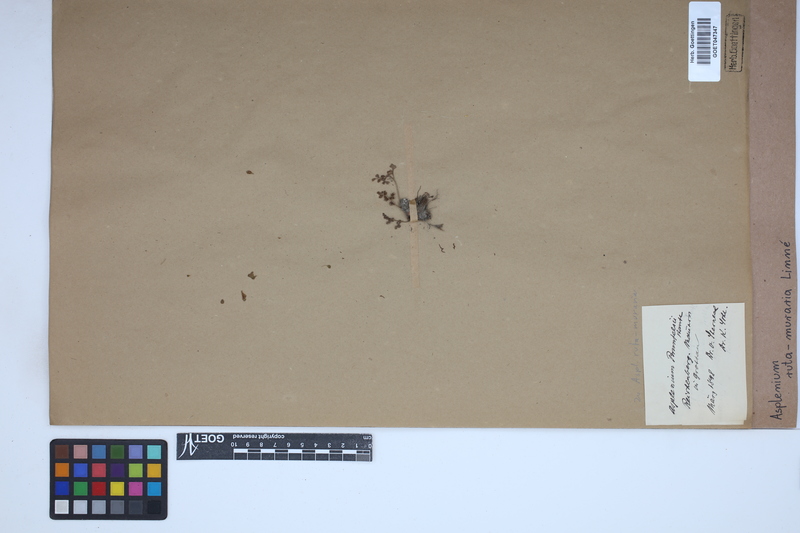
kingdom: Plantae
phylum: Tracheophyta
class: Polypodiopsida
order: Polypodiales
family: Aspleniaceae
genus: Asplenium
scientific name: Asplenium ruta-muraria
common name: Wall-rue
